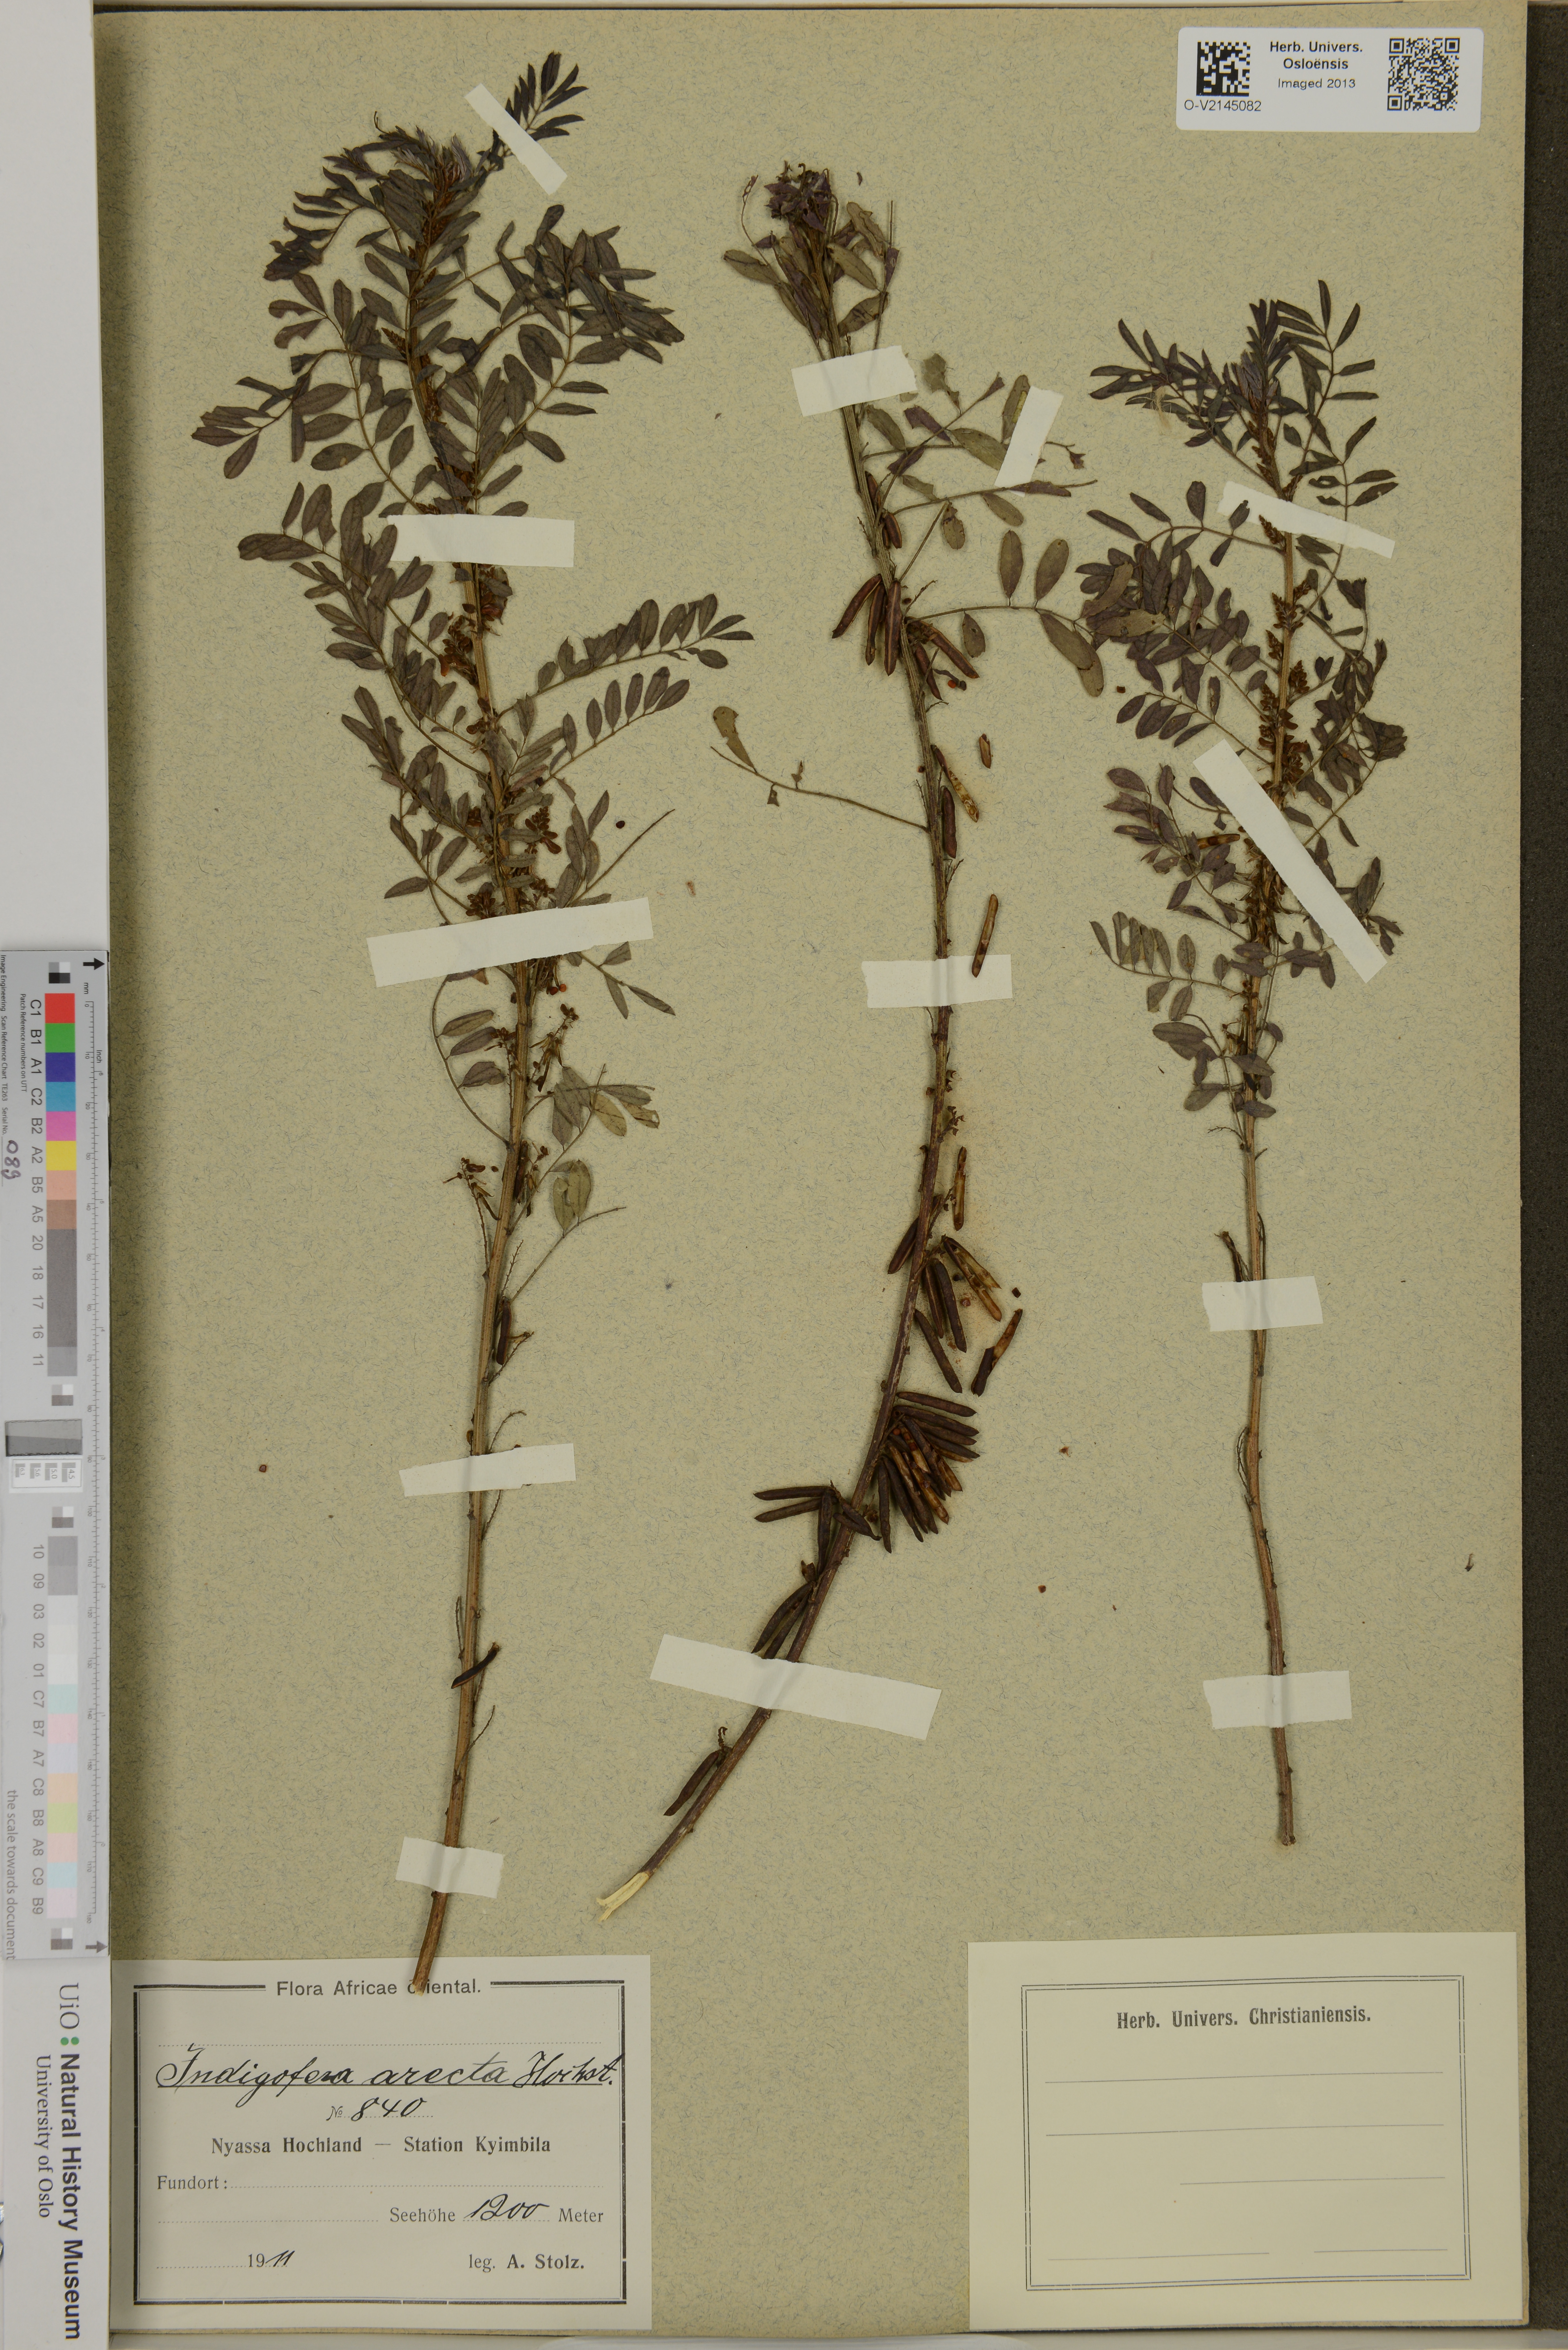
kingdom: Plantae
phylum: Tracheophyta
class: Magnoliopsida
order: Fabales
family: Fabaceae
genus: Indigofera
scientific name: Indigofera arrecta
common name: Bengal indigo
